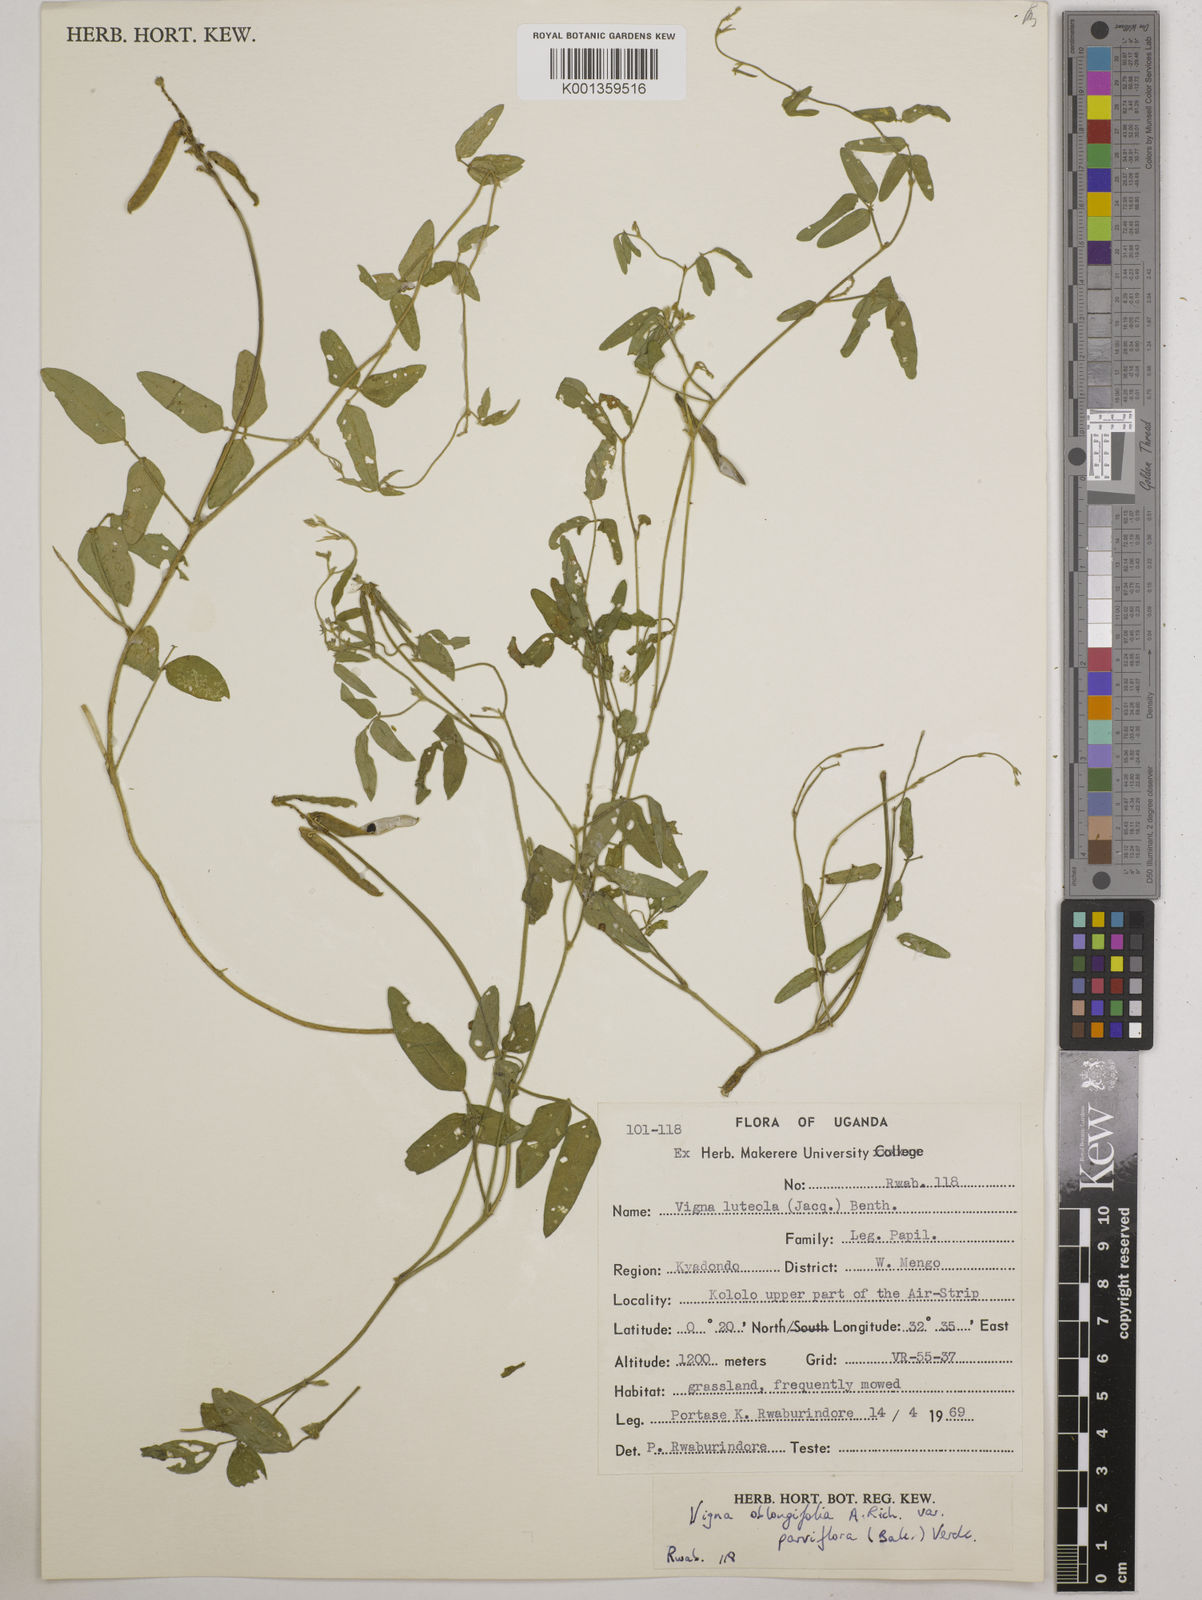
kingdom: Plantae
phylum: Tracheophyta
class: Magnoliopsida
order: Fabales
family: Fabaceae
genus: Vigna
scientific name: Vigna
